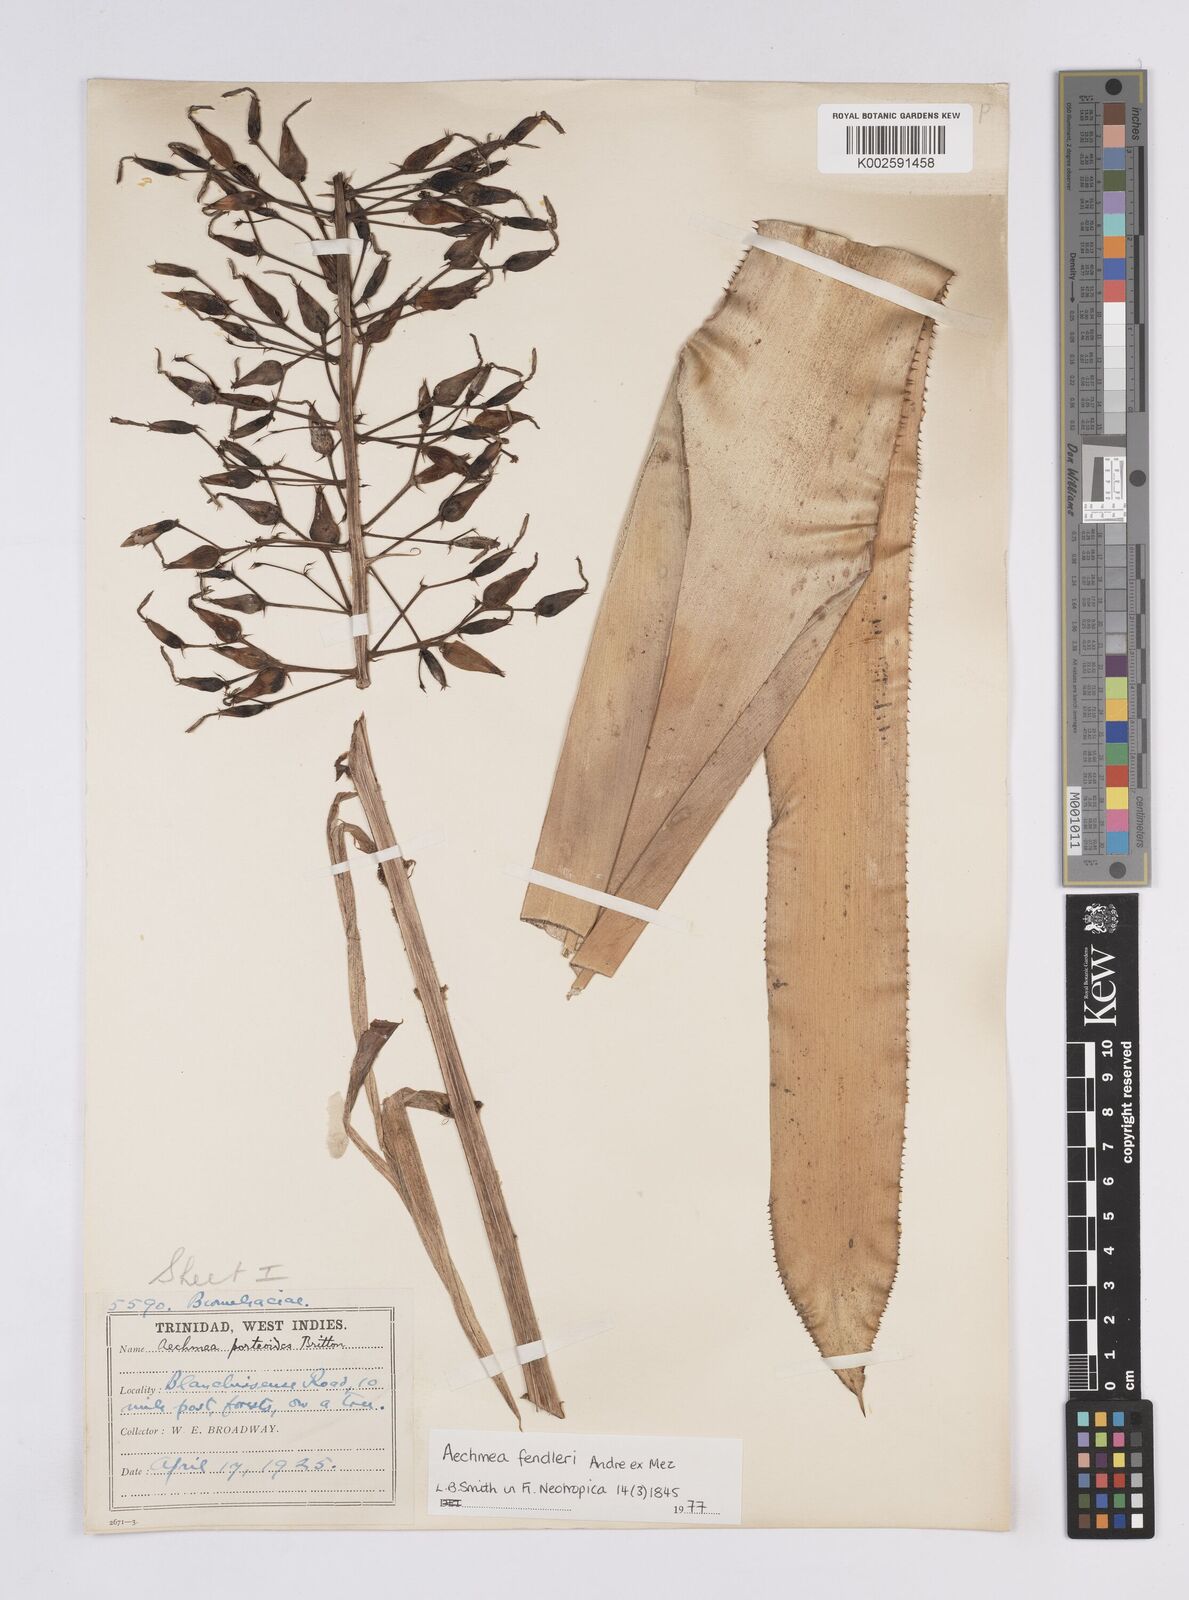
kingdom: Plantae
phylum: Tracheophyta
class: Liliopsida
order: Poales
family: Bromeliaceae
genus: Aechmea
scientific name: Aechmea fendleri
